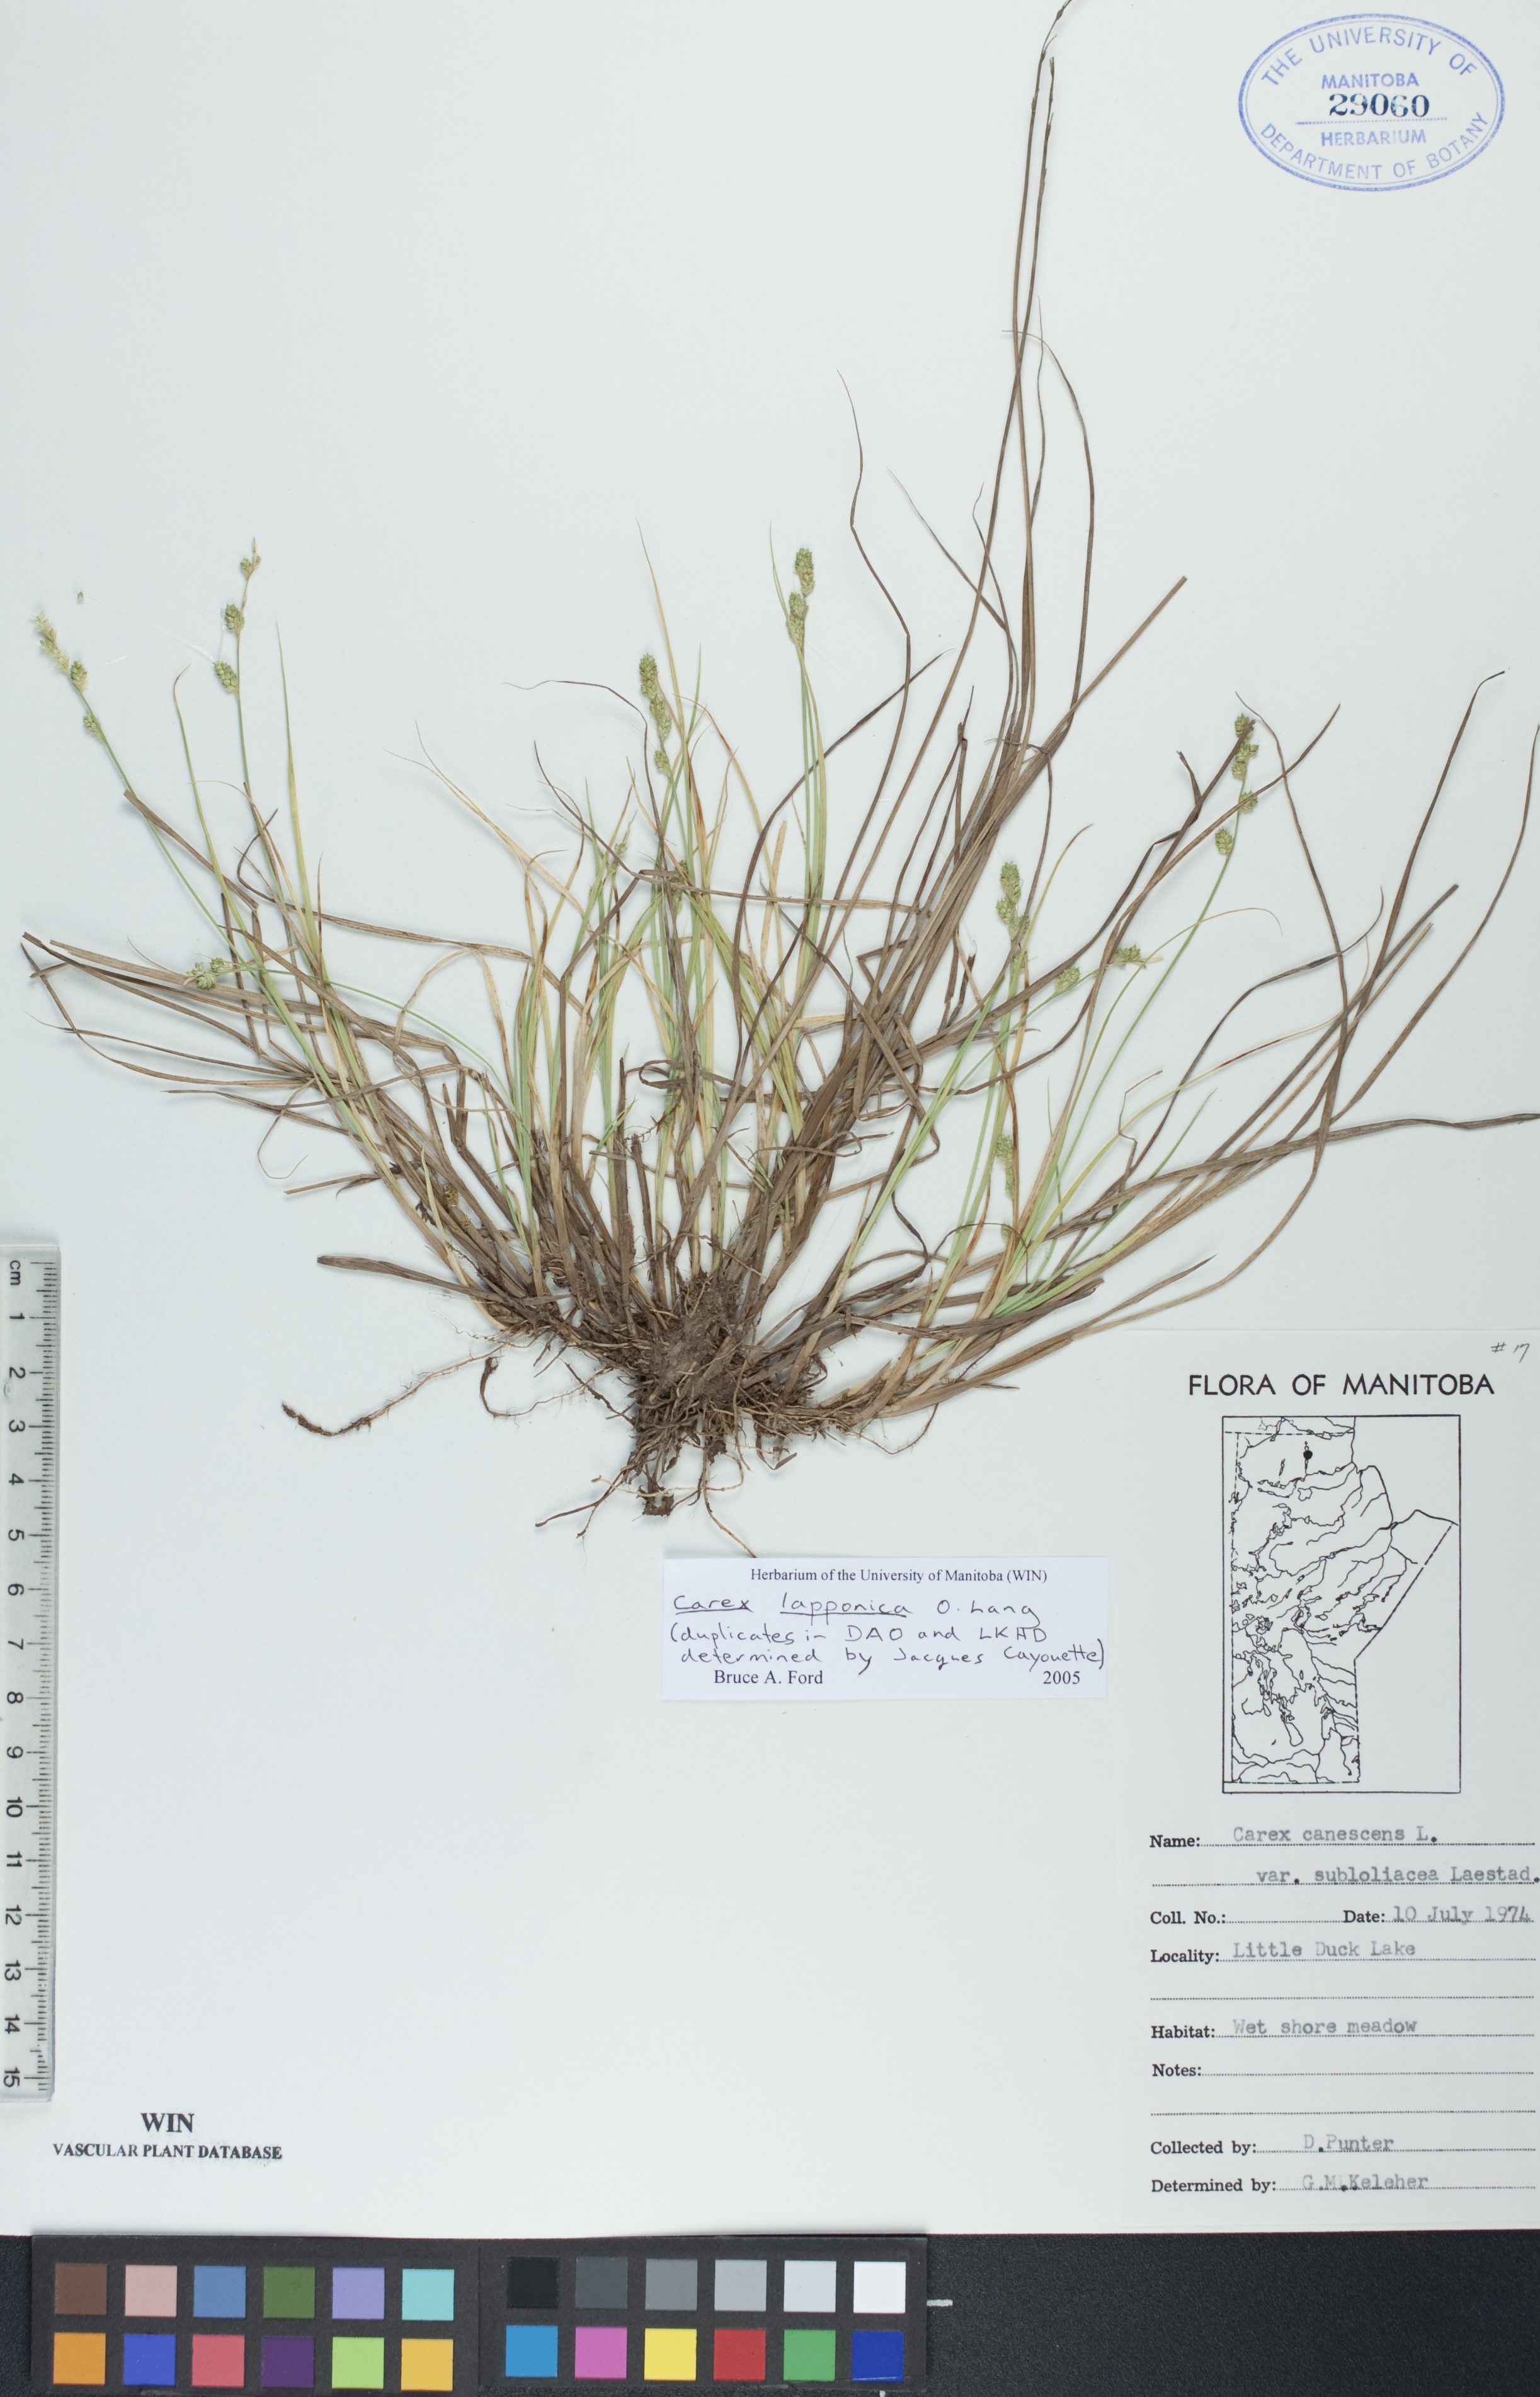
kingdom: Plantae
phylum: Tracheophyta
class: Liliopsida
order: Poales
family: Cyperaceae
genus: Carex
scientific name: Carex lapponica
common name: Lapland sedge
